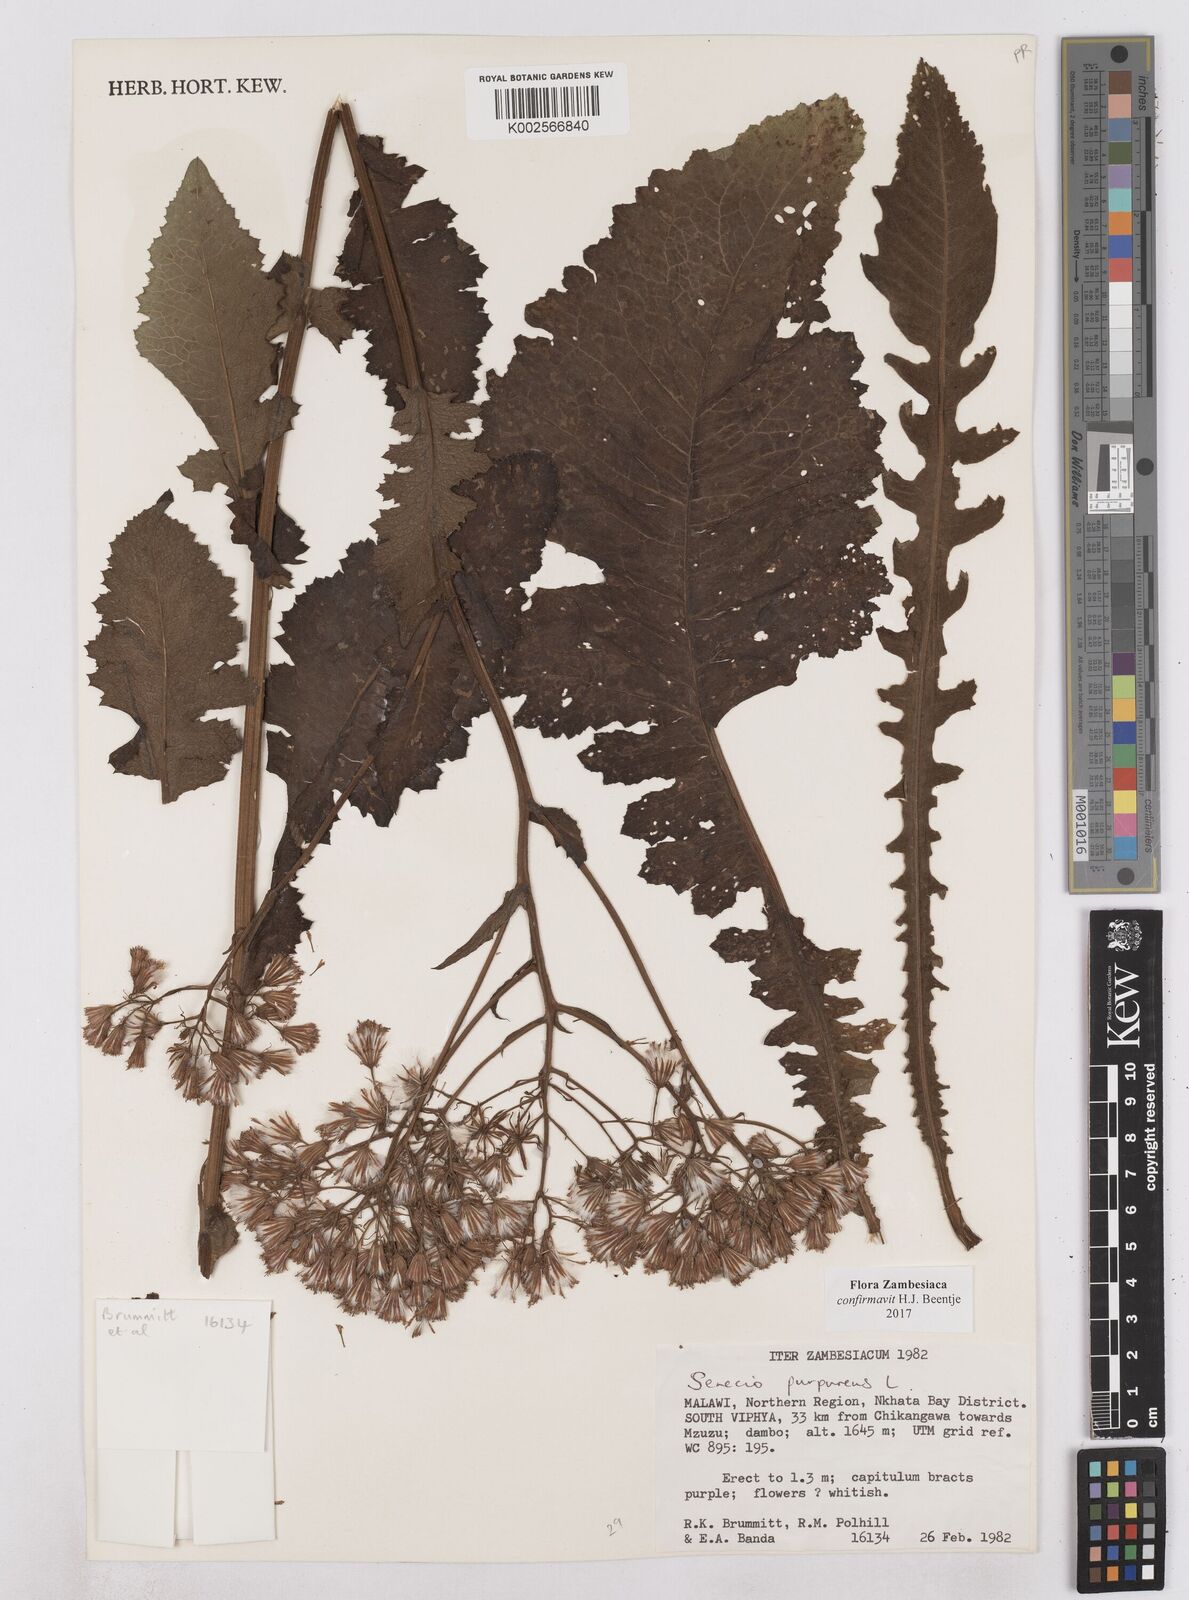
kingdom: Plantae
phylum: Tracheophyta
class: Magnoliopsida
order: Asterales
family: Asteraceae
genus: Senecio
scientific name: Senecio purpureus
